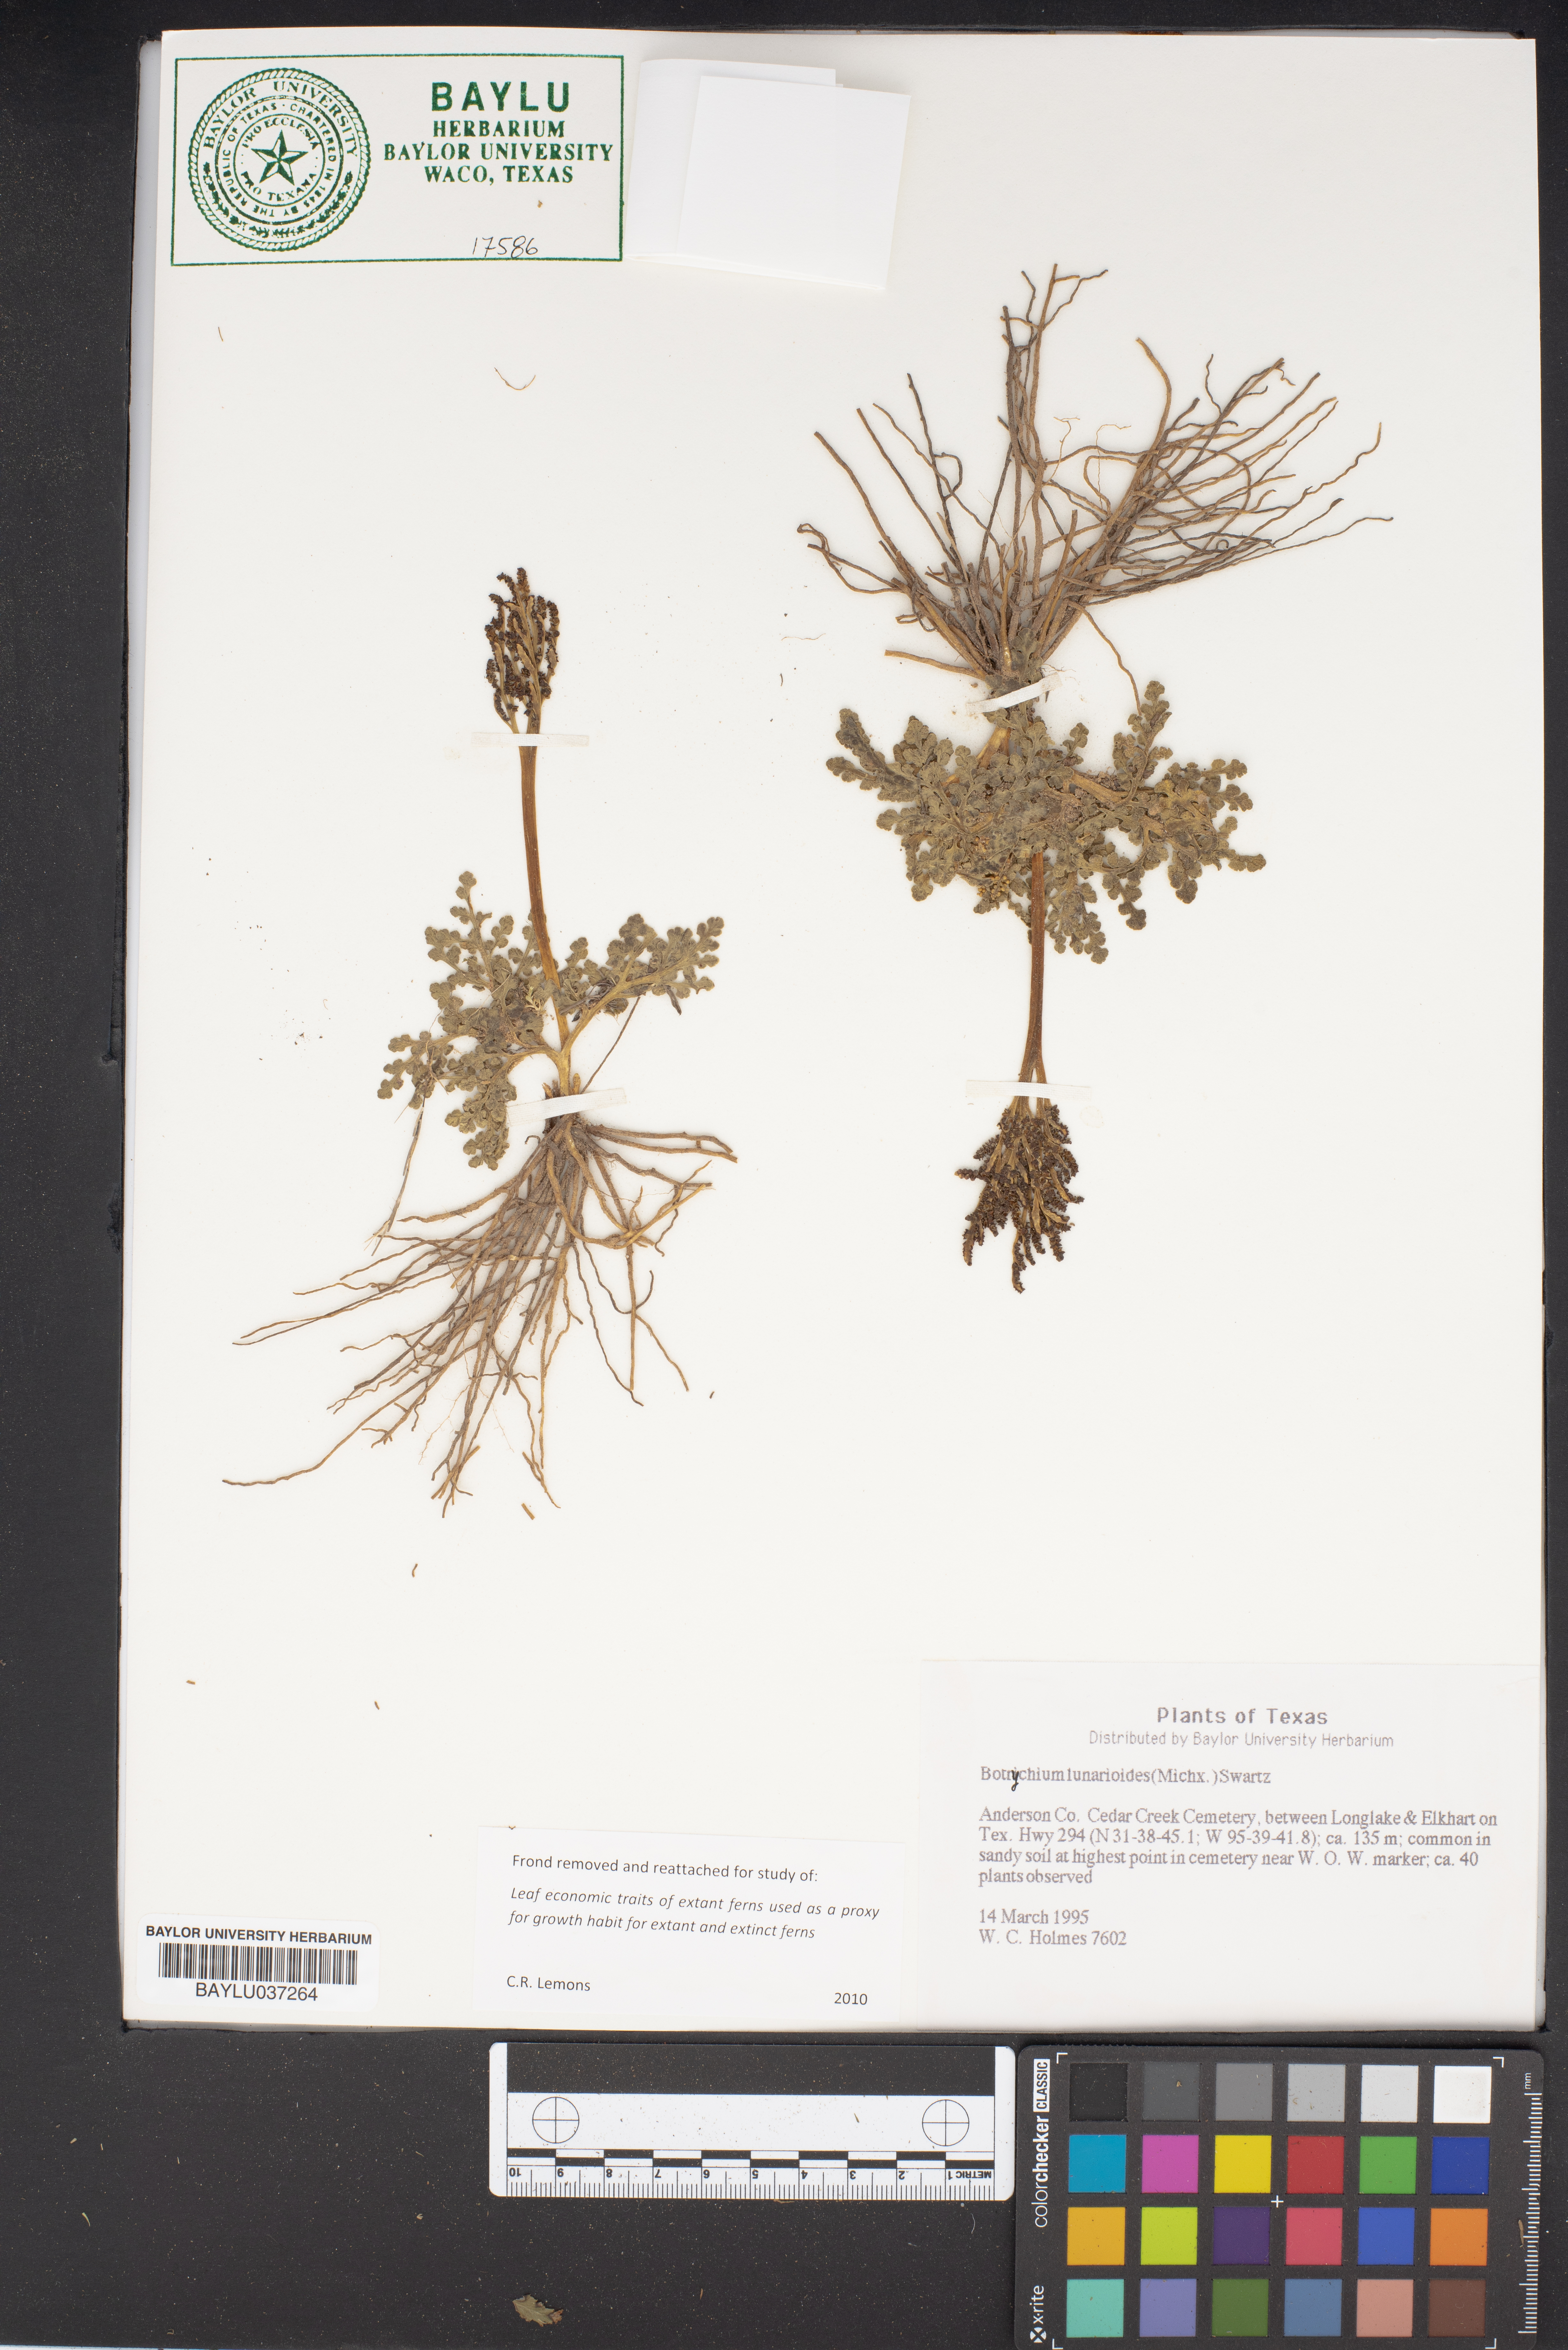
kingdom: Plantae
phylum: Tracheophyta
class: Polypodiopsida
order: Ophioglossales
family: Ophioglossaceae
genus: Sceptridium
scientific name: Sceptridium lunarioides
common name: Prostrate grapefern
